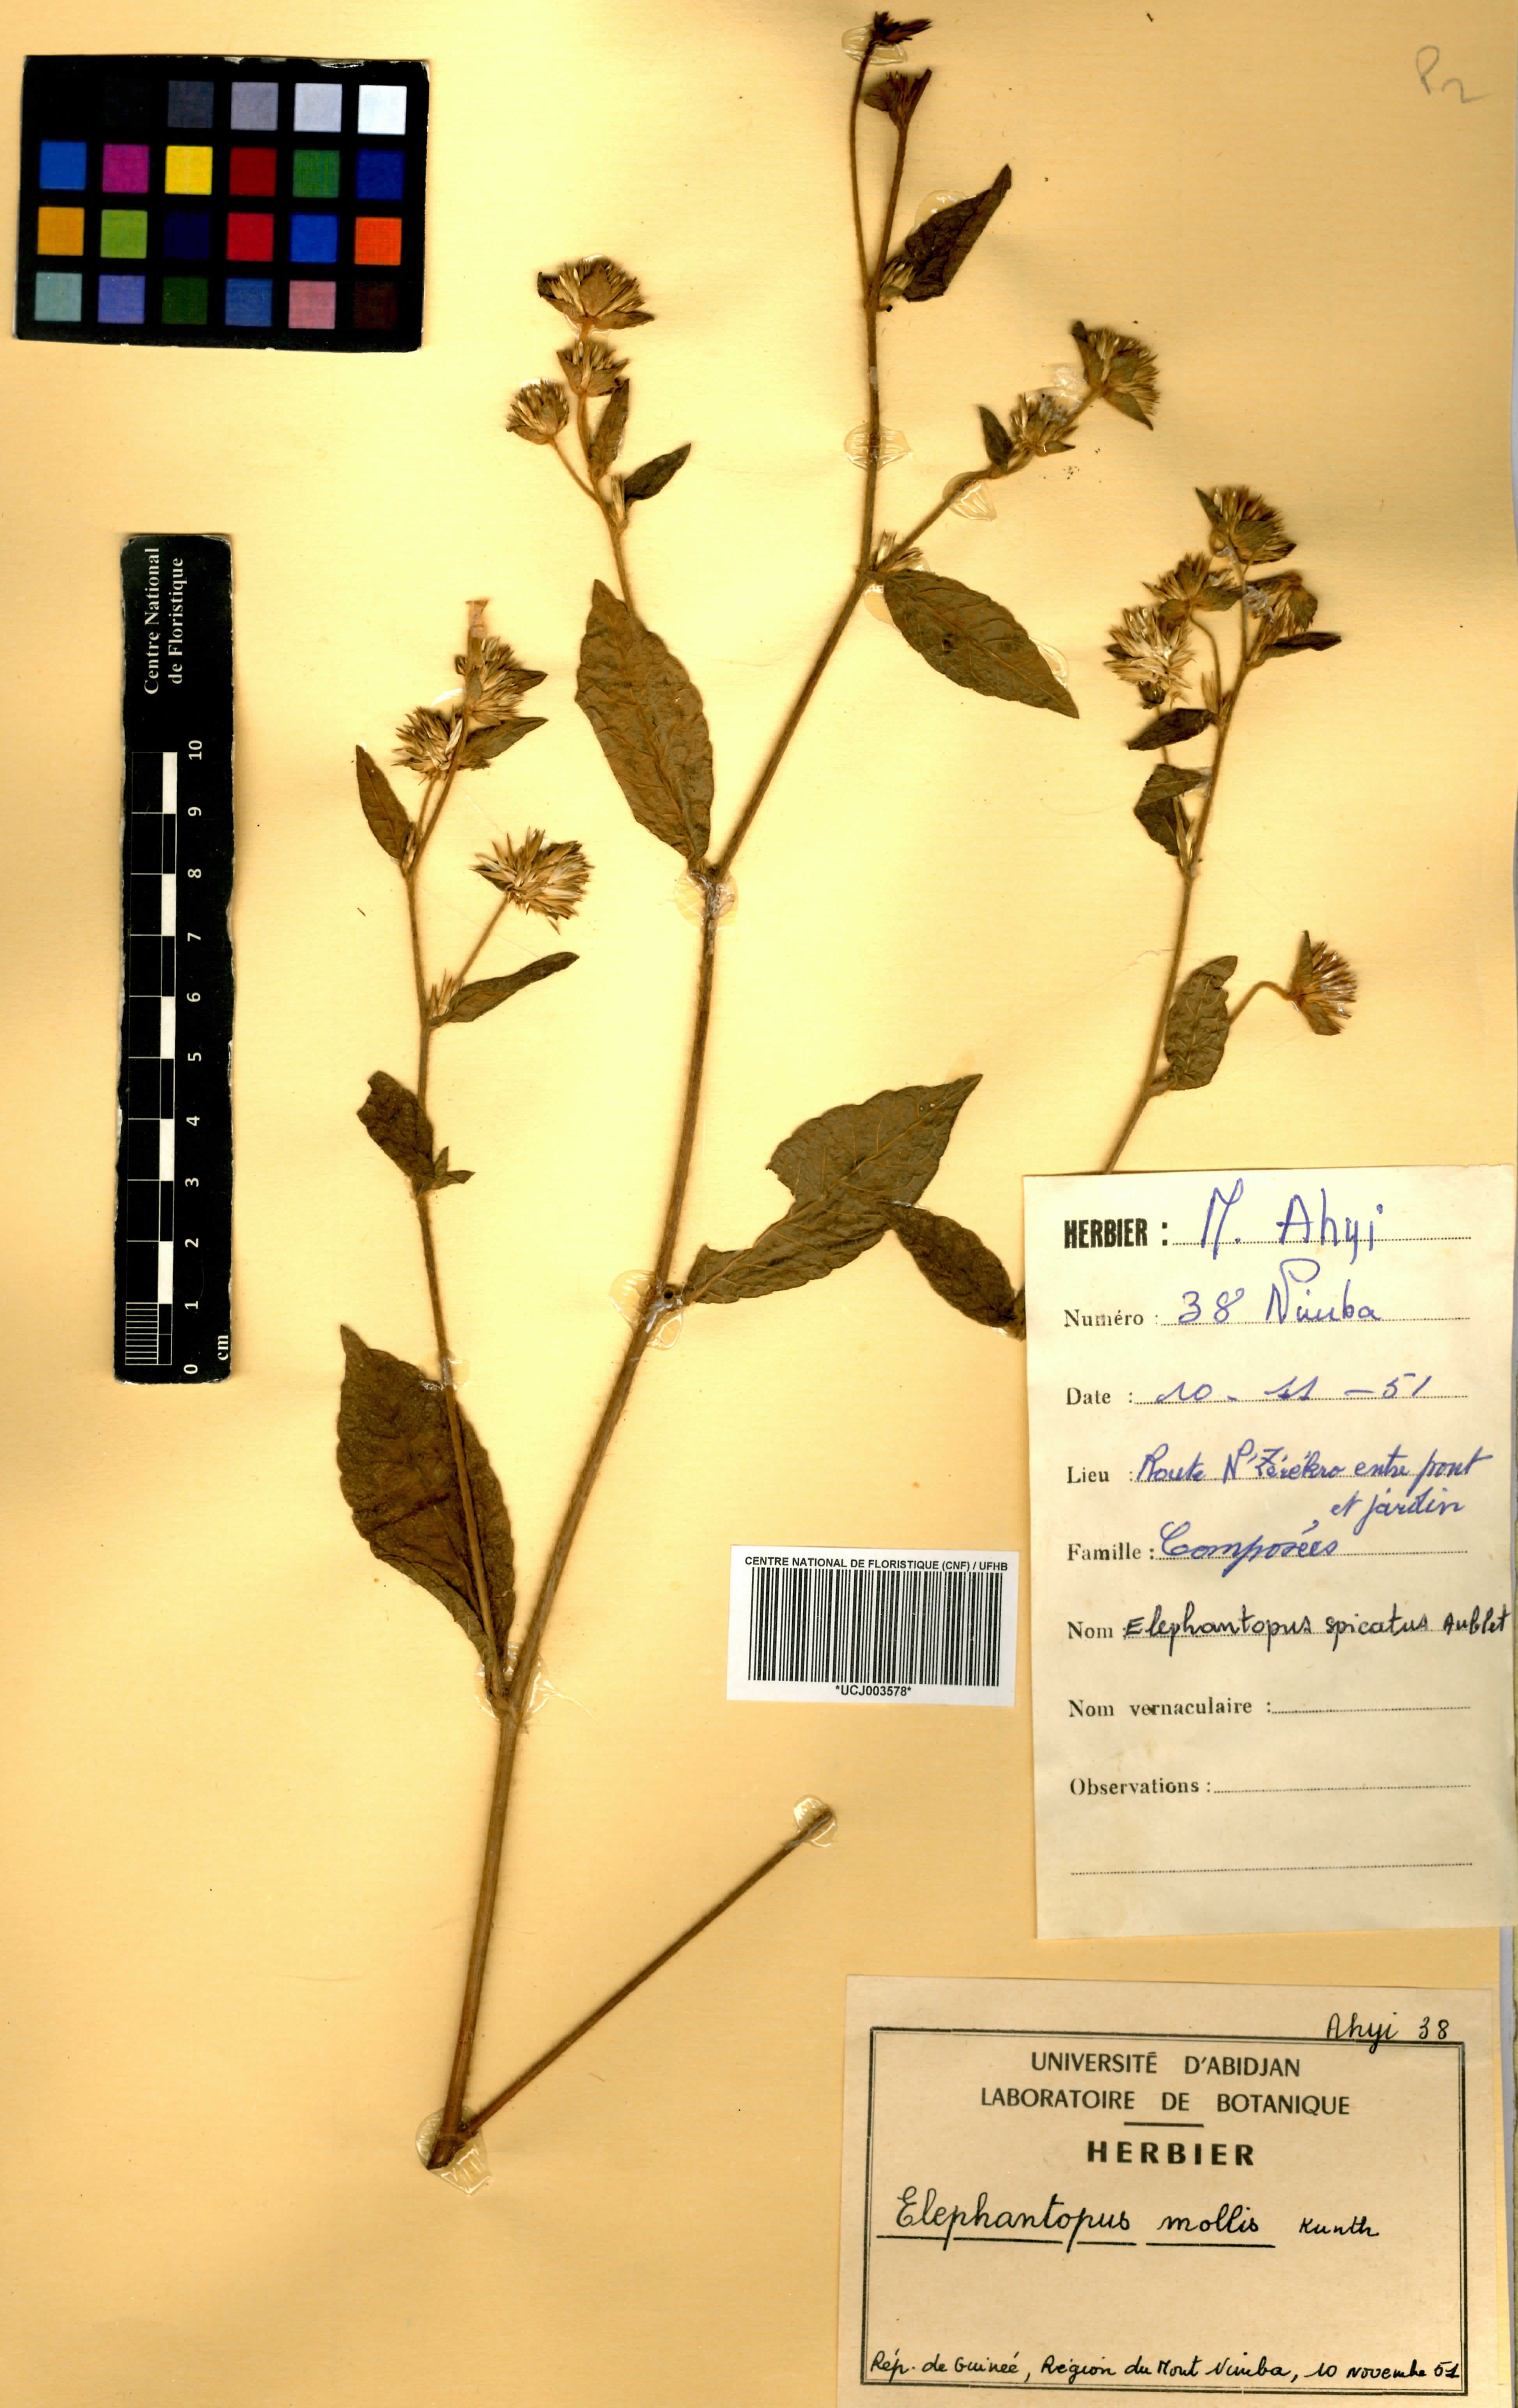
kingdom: Plantae
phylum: Tracheophyta
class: Magnoliopsida
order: Asterales
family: Asteraceae
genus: Elephantopus
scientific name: Elephantopus mollis
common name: Soft elephantsfoot
